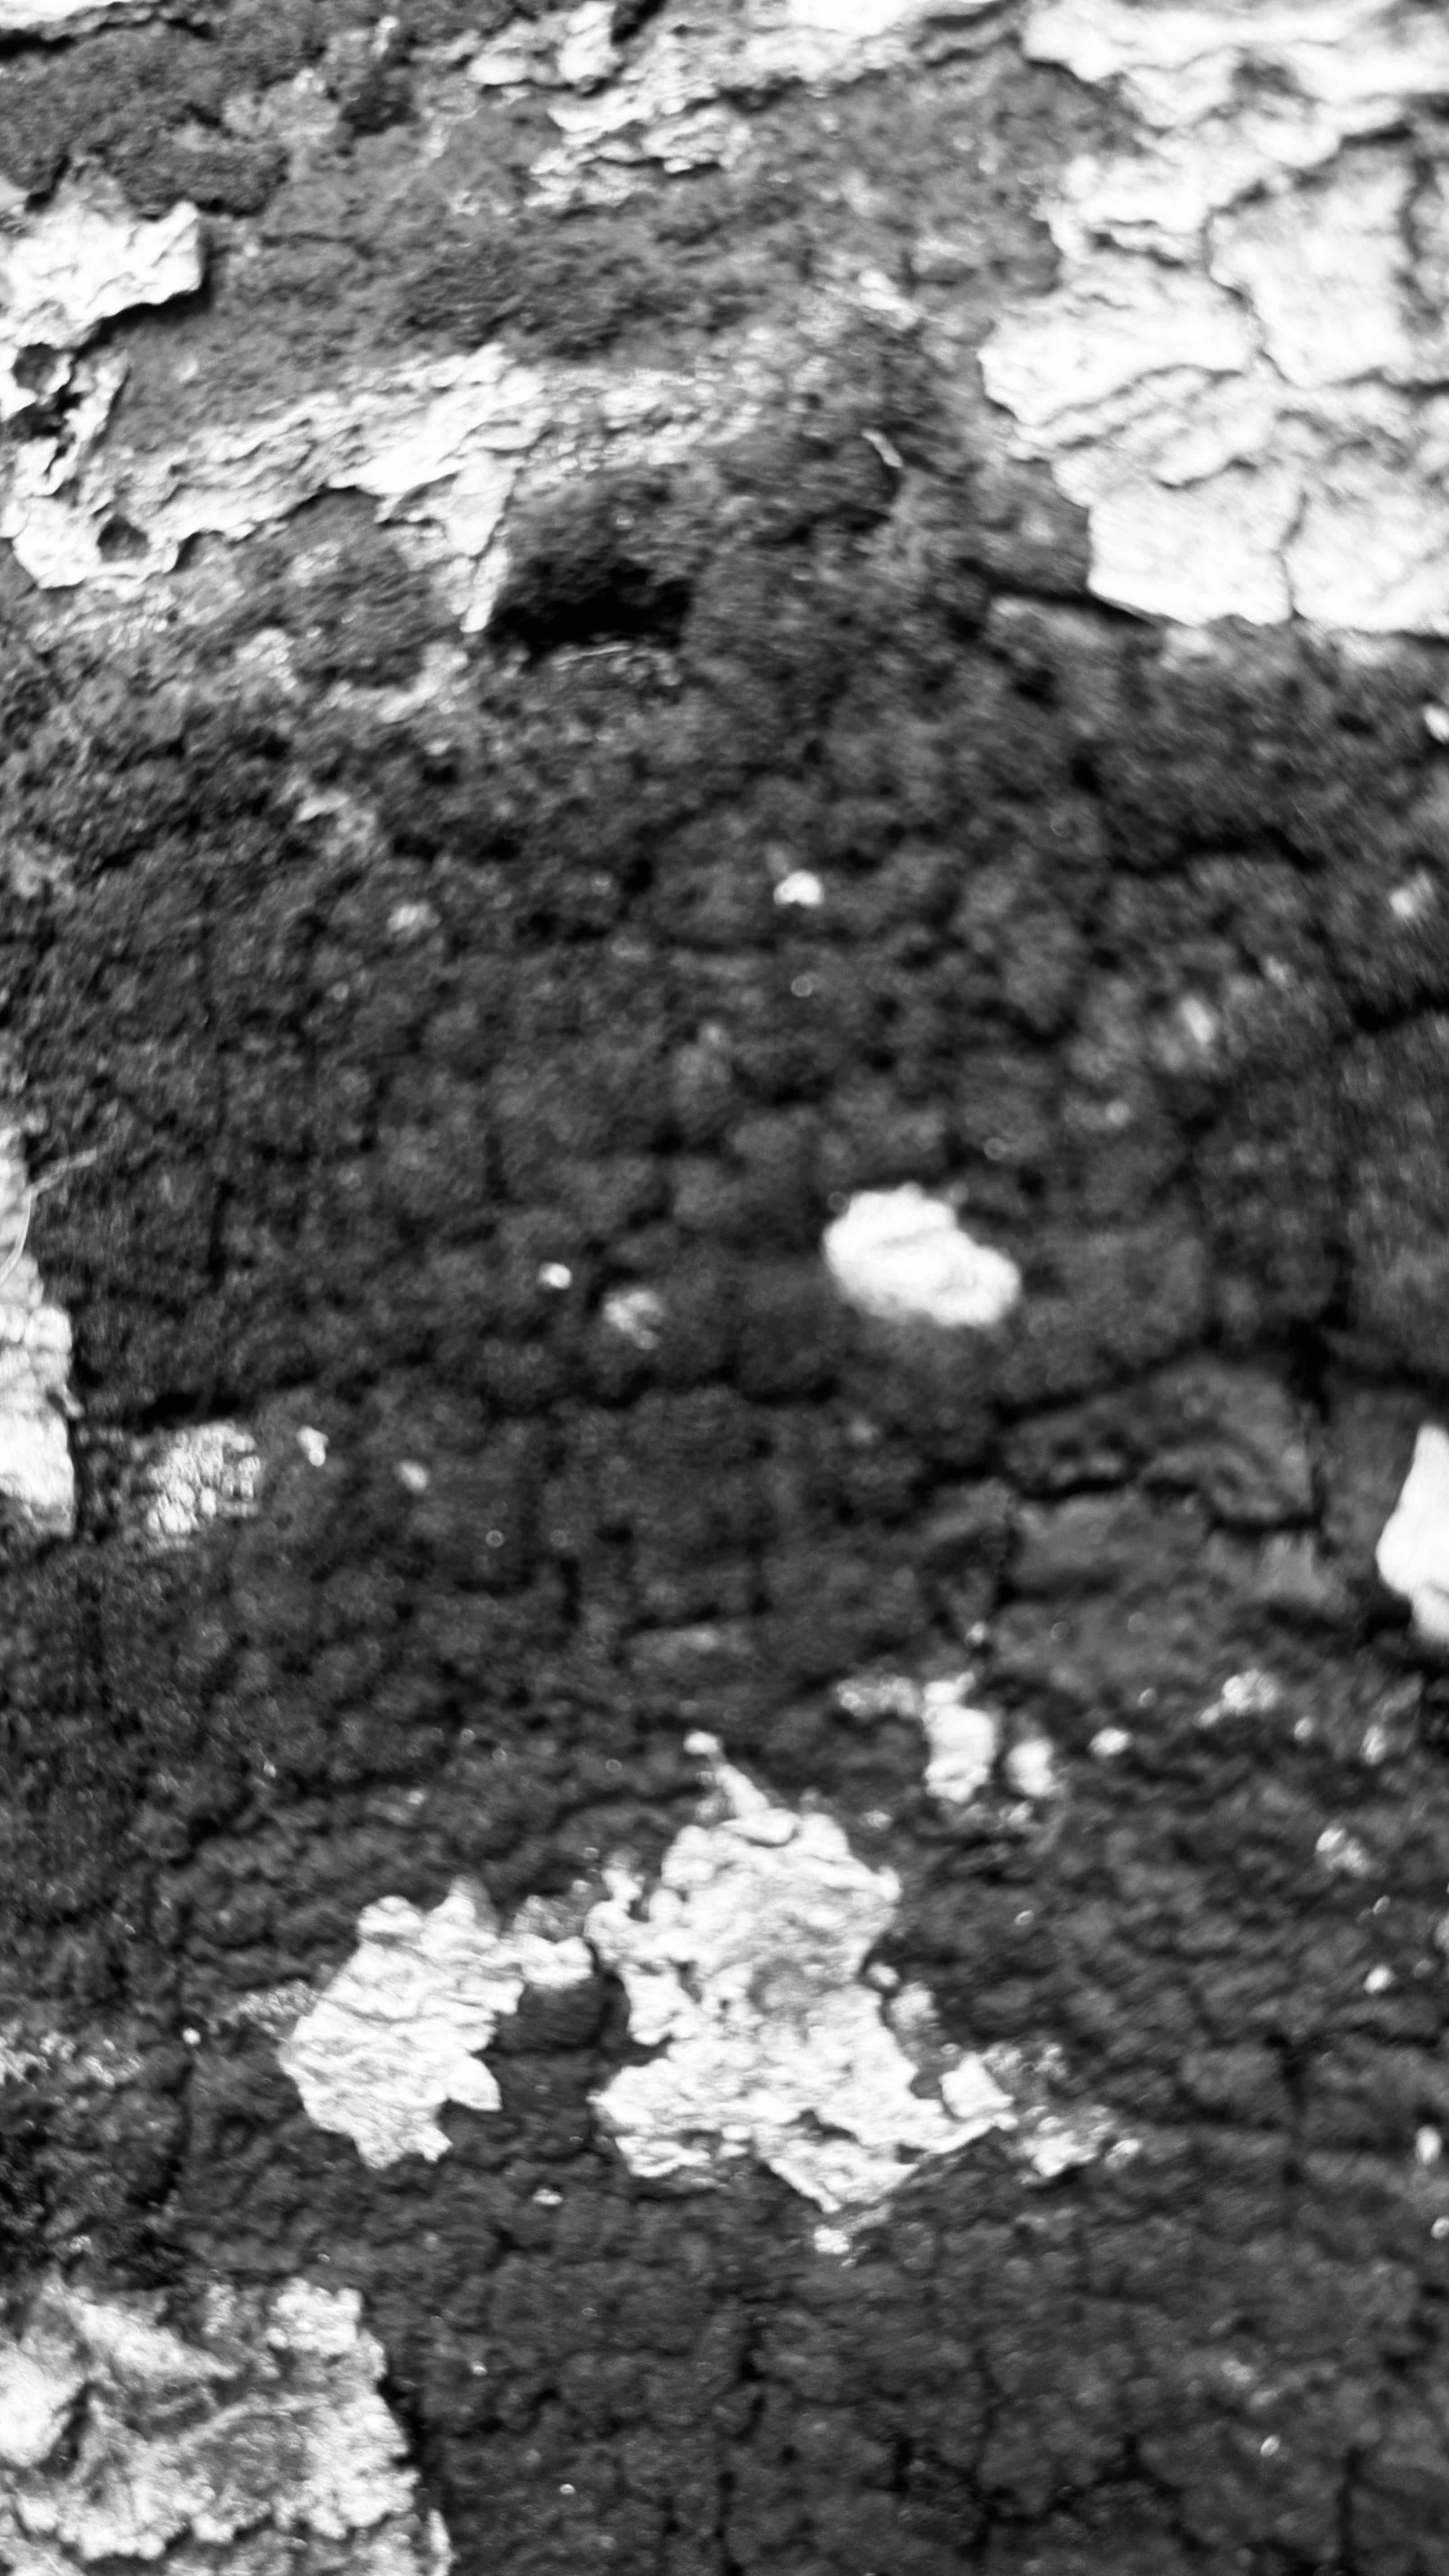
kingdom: Fungi
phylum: Ascomycota
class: Sordariomycetes
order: Xylariales
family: Diatrypaceae
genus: Eutypa
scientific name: Eutypa spinosa
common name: grov kulskorpe
